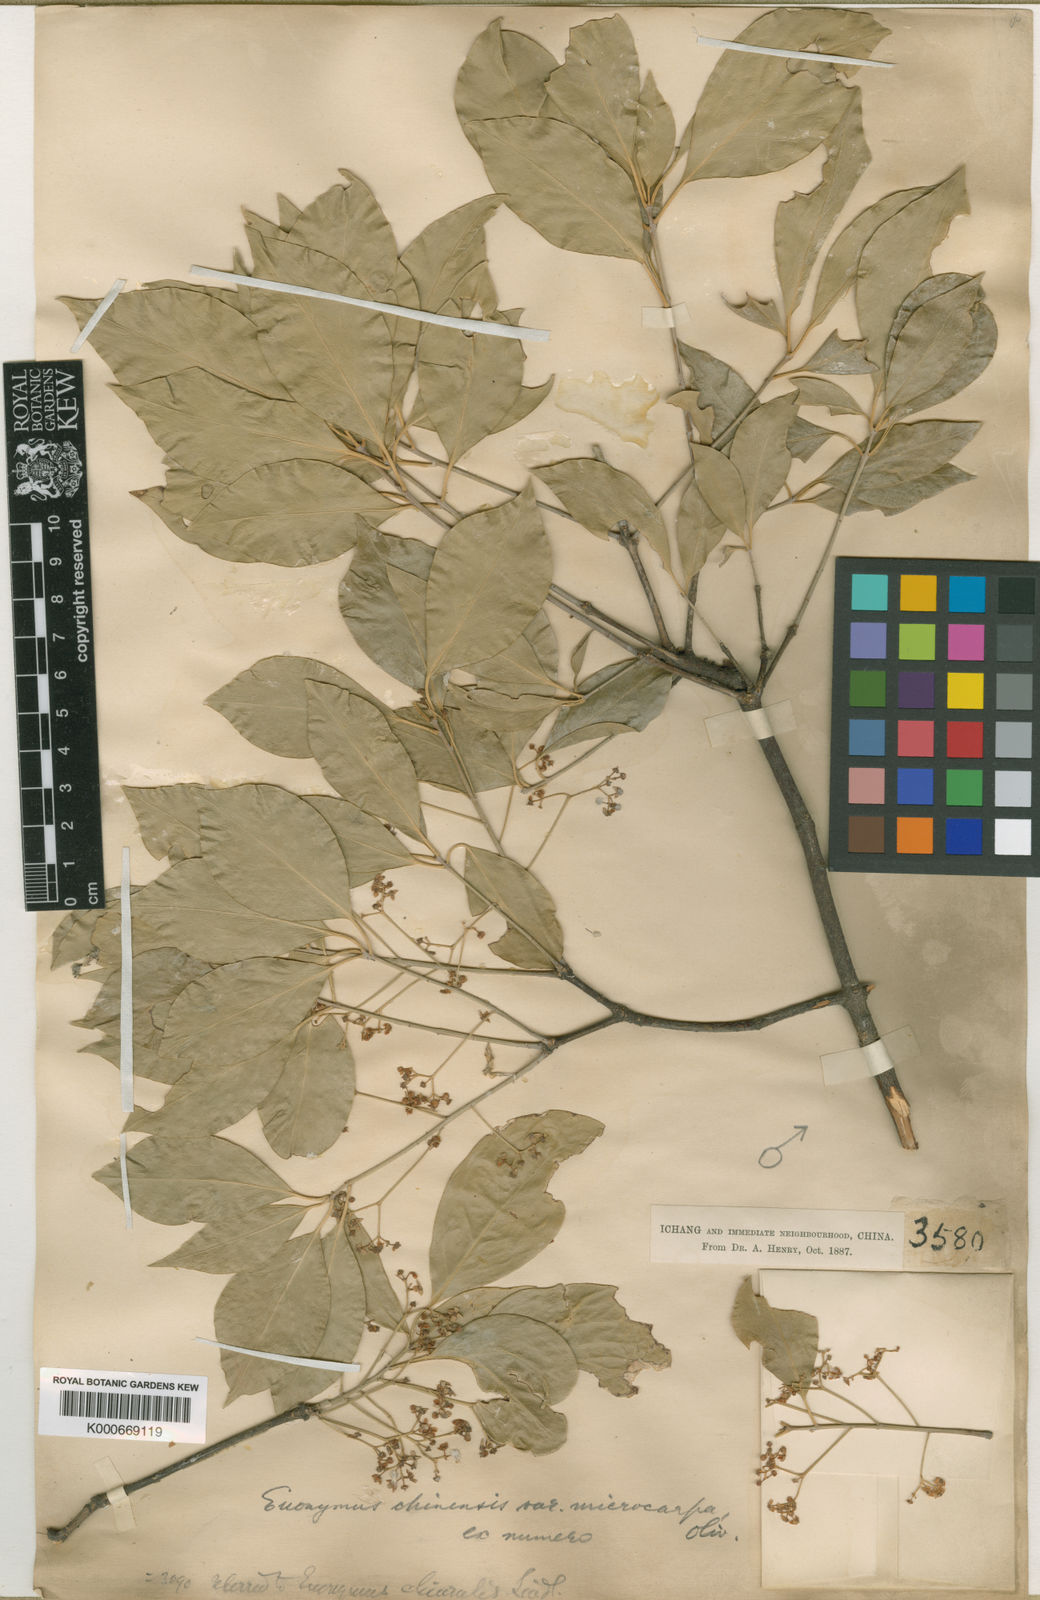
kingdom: Plantae
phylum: Tracheophyta
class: Magnoliopsida
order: Celastrales
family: Celastraceae
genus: Euonymus
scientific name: Euonymus microcarpus
